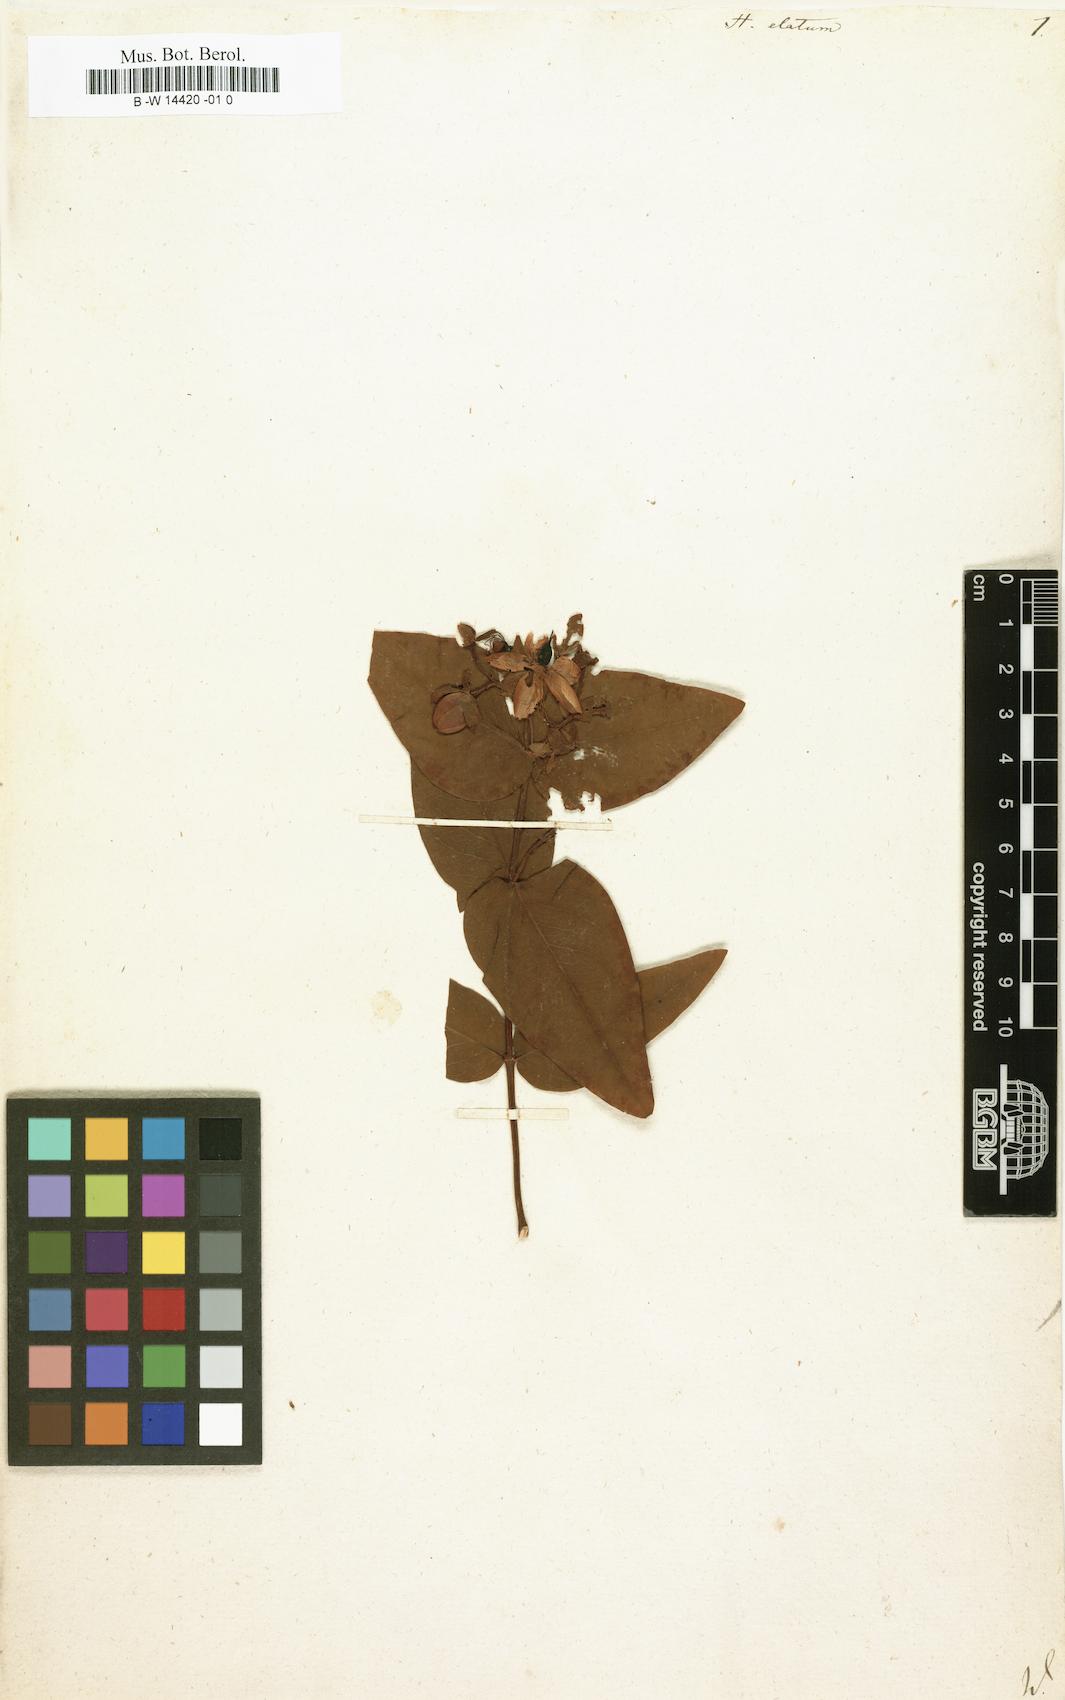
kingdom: Plantae
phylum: Tracheophyta
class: Magnoliopsida
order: Malpighiales
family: Hypericaceae
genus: Hypericum
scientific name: Hypericum inodorum
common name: Tall tutsan
